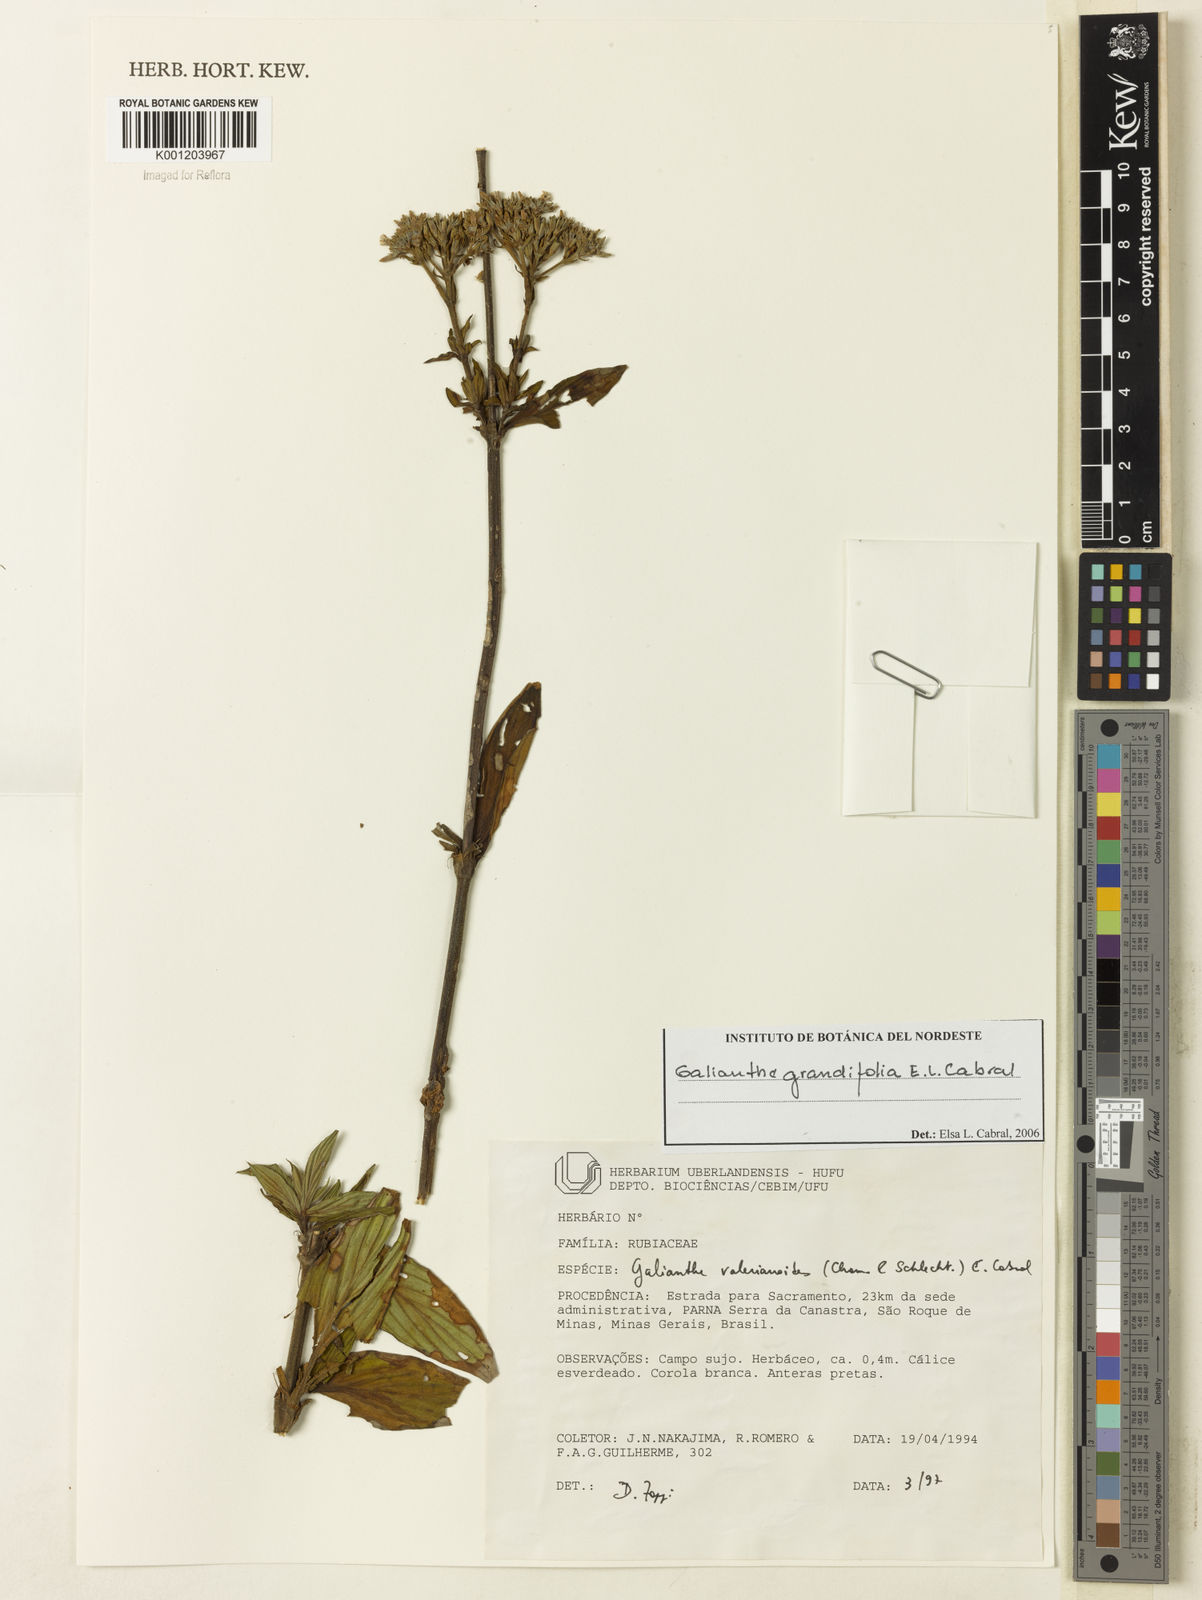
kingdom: Plantae
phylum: Tracheophyta
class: Magnoliopsida
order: Gentianales
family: Rubiaceae
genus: Galianthe
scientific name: Galianthe grandifolia
